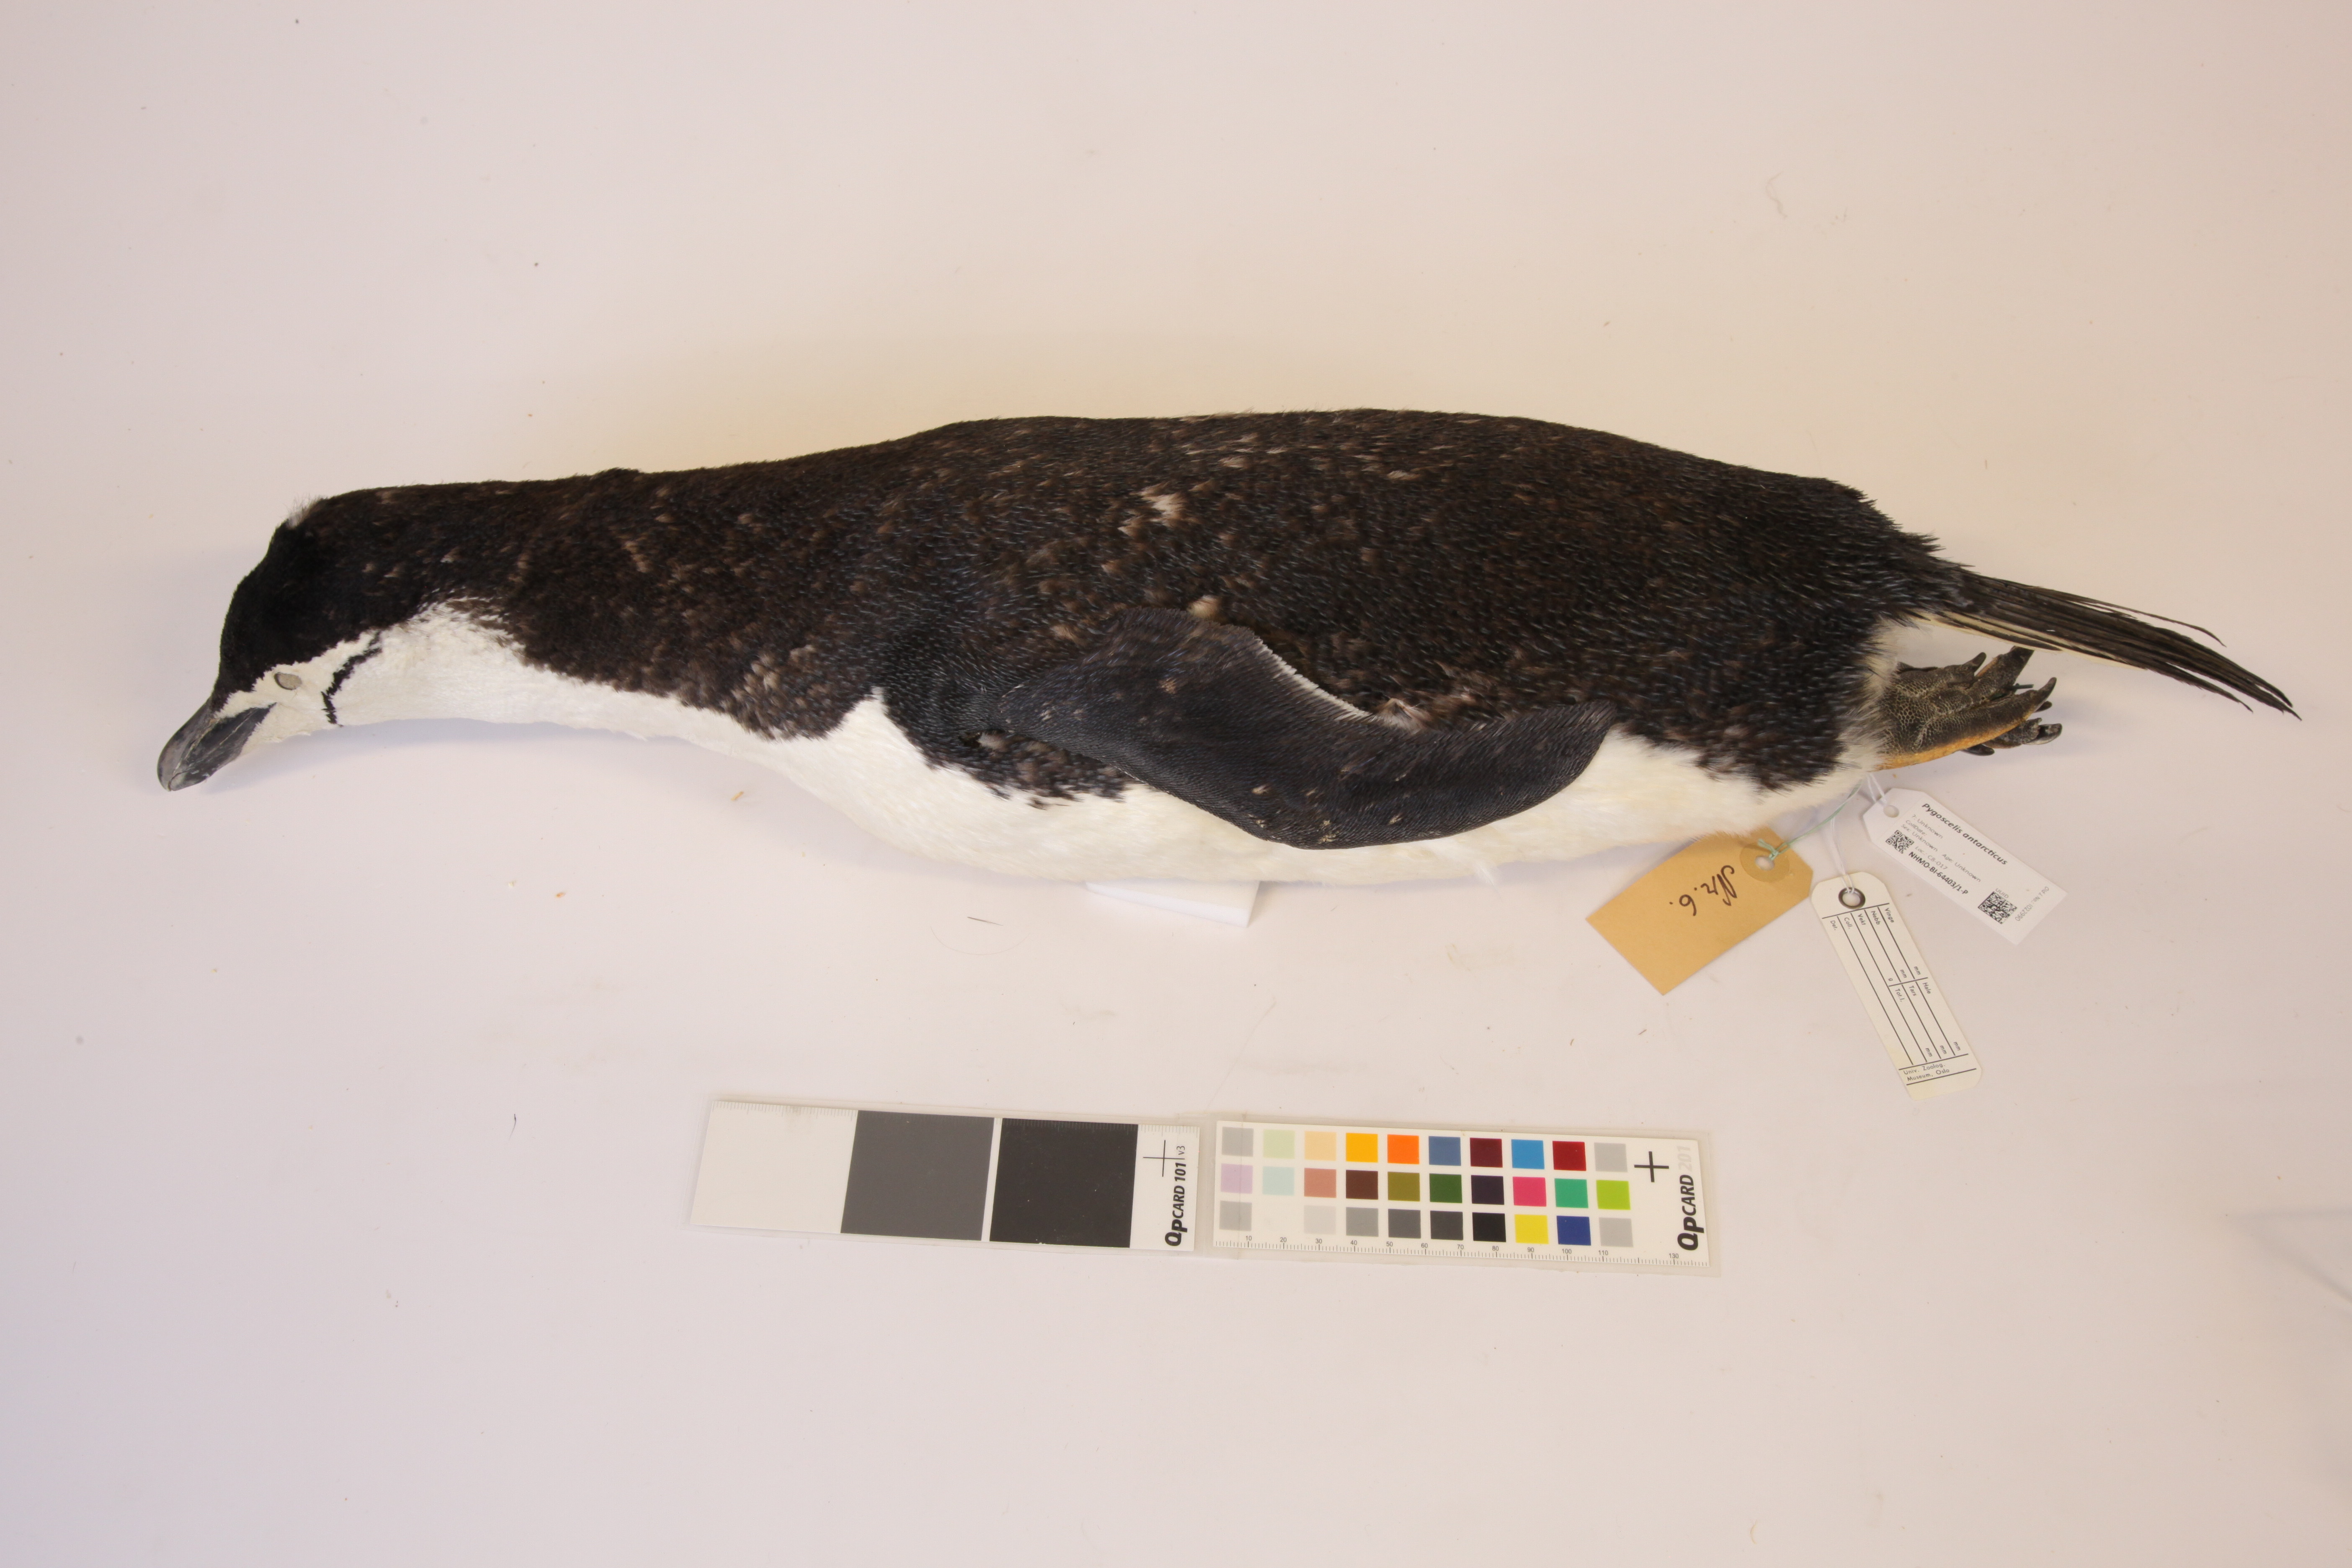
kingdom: Animalia
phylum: Chordata
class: Aves
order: Sphenisciformes
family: Spheniscidae
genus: Pygoscelis
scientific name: Pygoscelis antarcticus
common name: Chinstrap penguin
